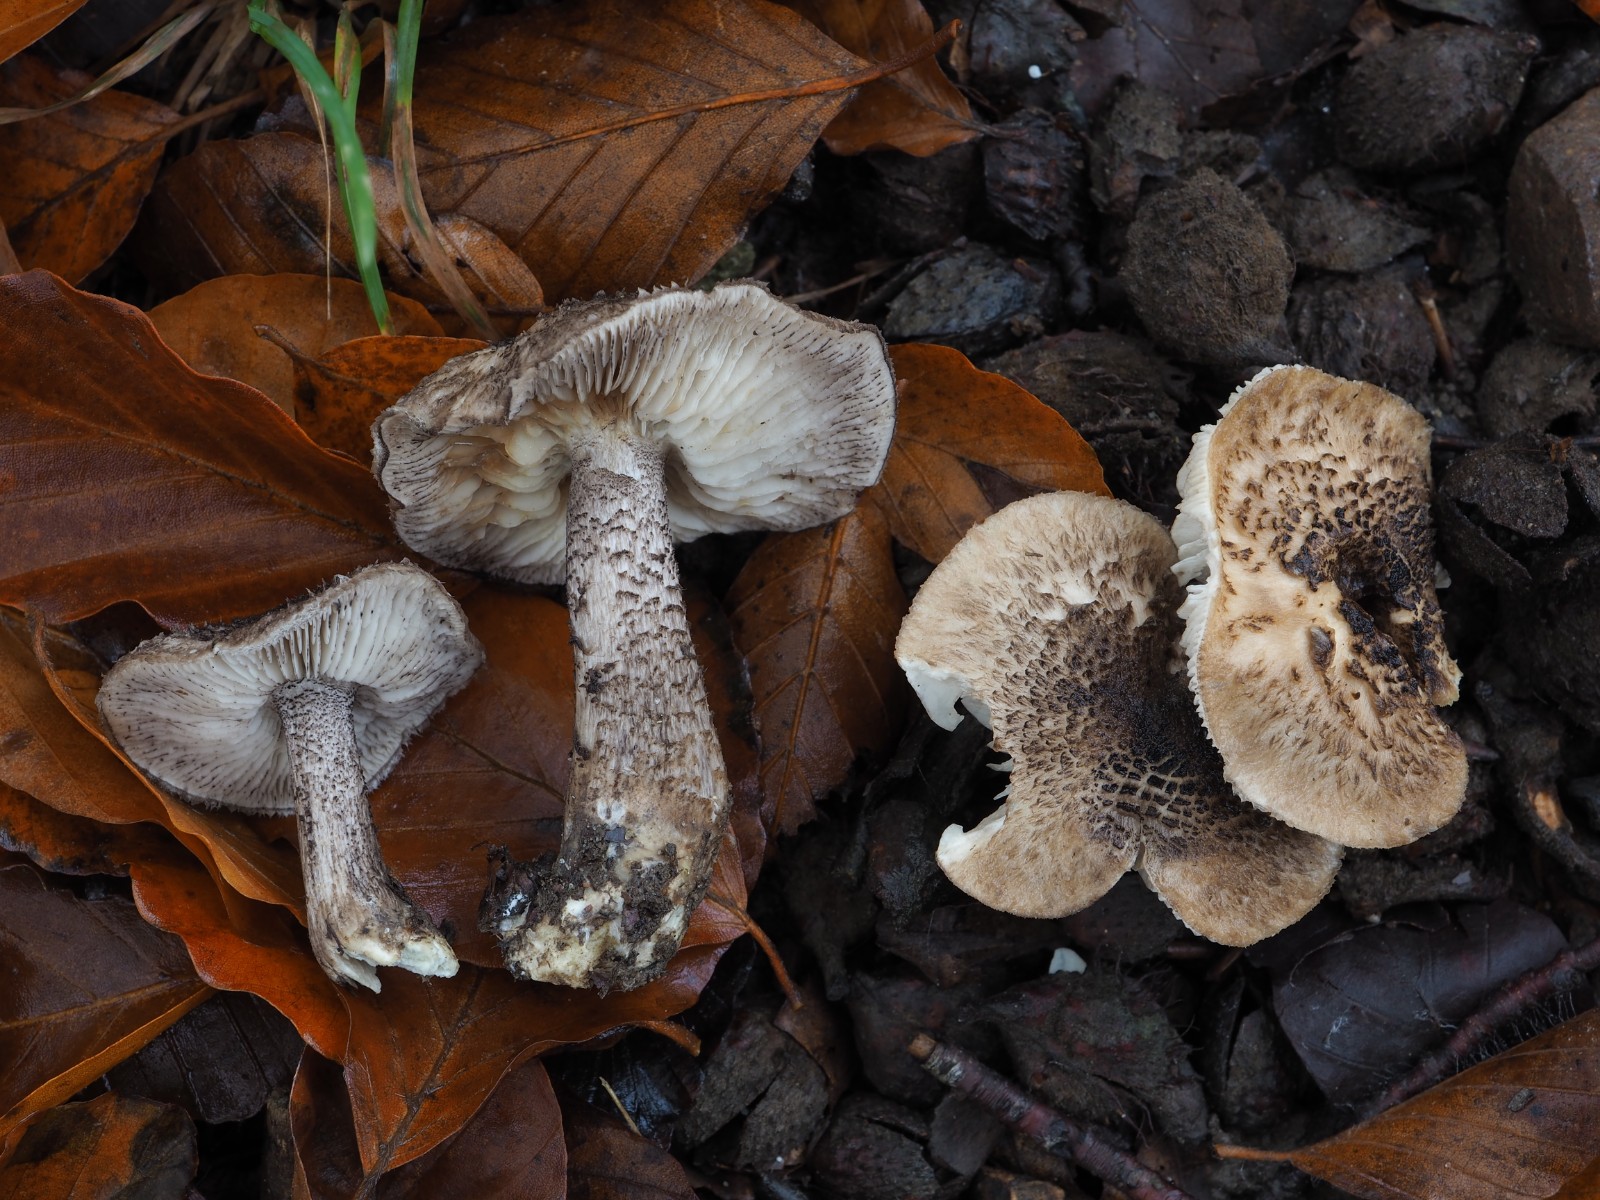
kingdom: Fungi
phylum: Basidiomycota
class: Agaricomycetes
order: Agaricales
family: Tricholomataceae
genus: Tricholoma
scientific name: Tricholoma atrosquamosum
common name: sortskællet ridderhat
